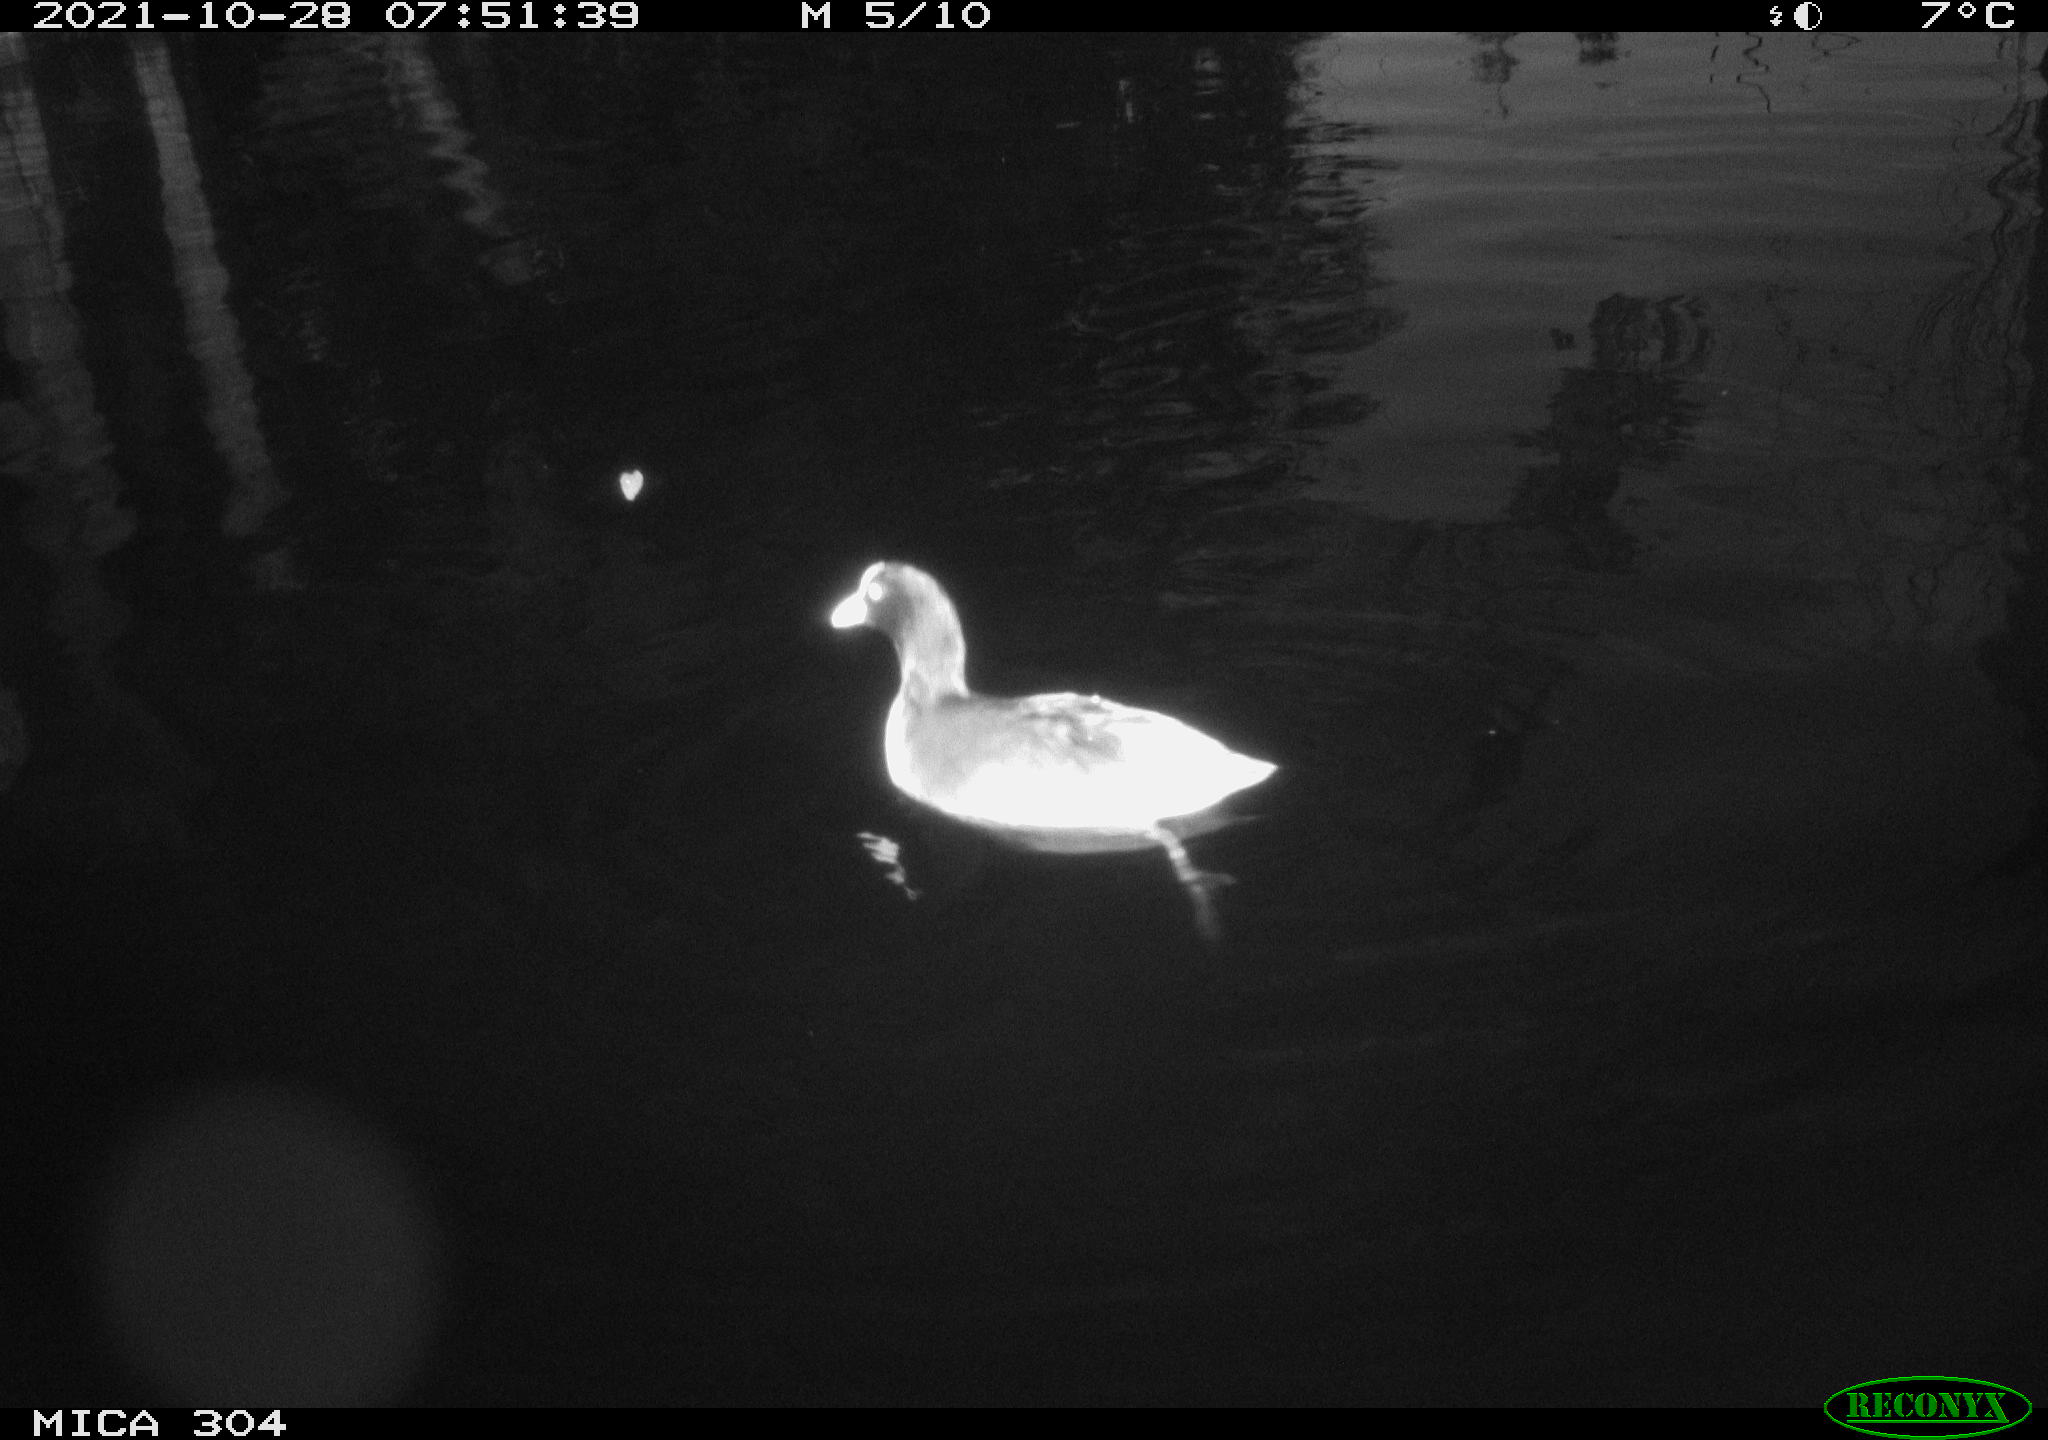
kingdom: Animalia
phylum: Chordata
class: Aves
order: Gruiformes
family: Rallidae
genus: Fulica
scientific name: Fulica atra
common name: Eurasian coot
